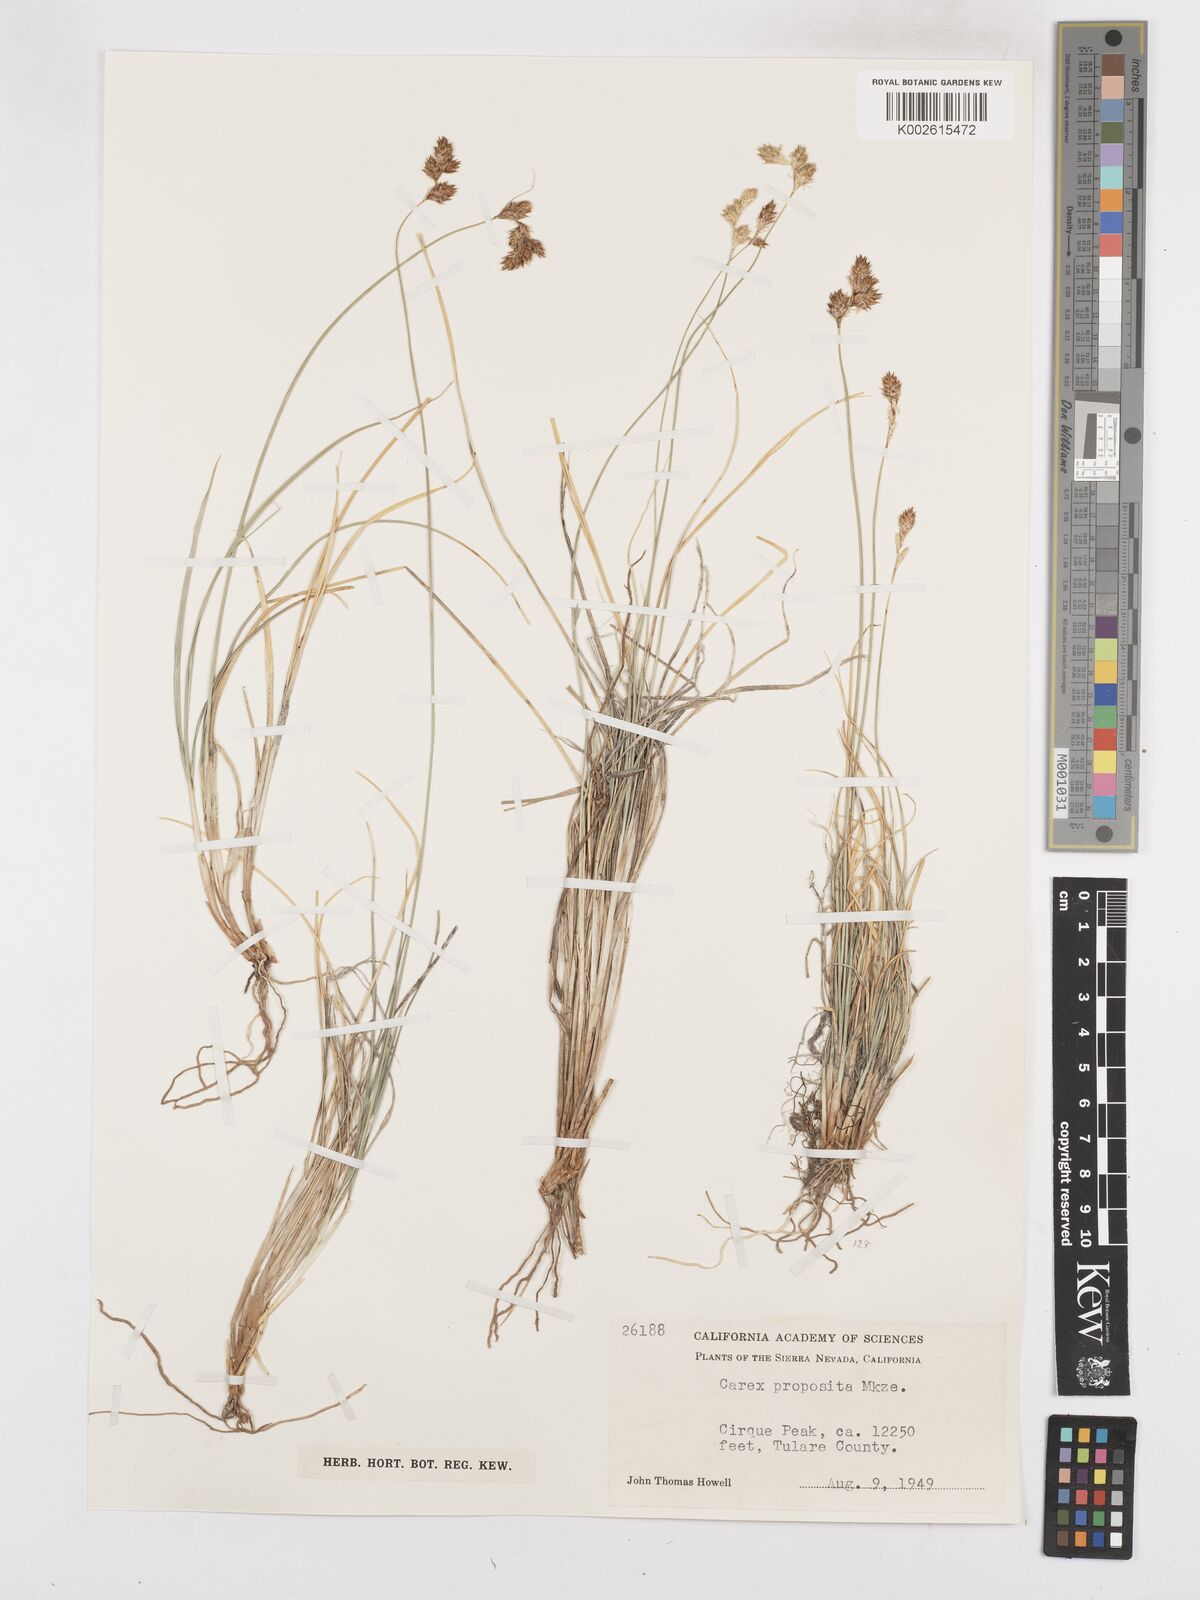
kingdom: Plantae
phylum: Tracheophyta
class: Liliopsida
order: Poales
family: Cyperaceae
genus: Carex
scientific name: Carex proposita
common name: Great smoky mountain sedge
